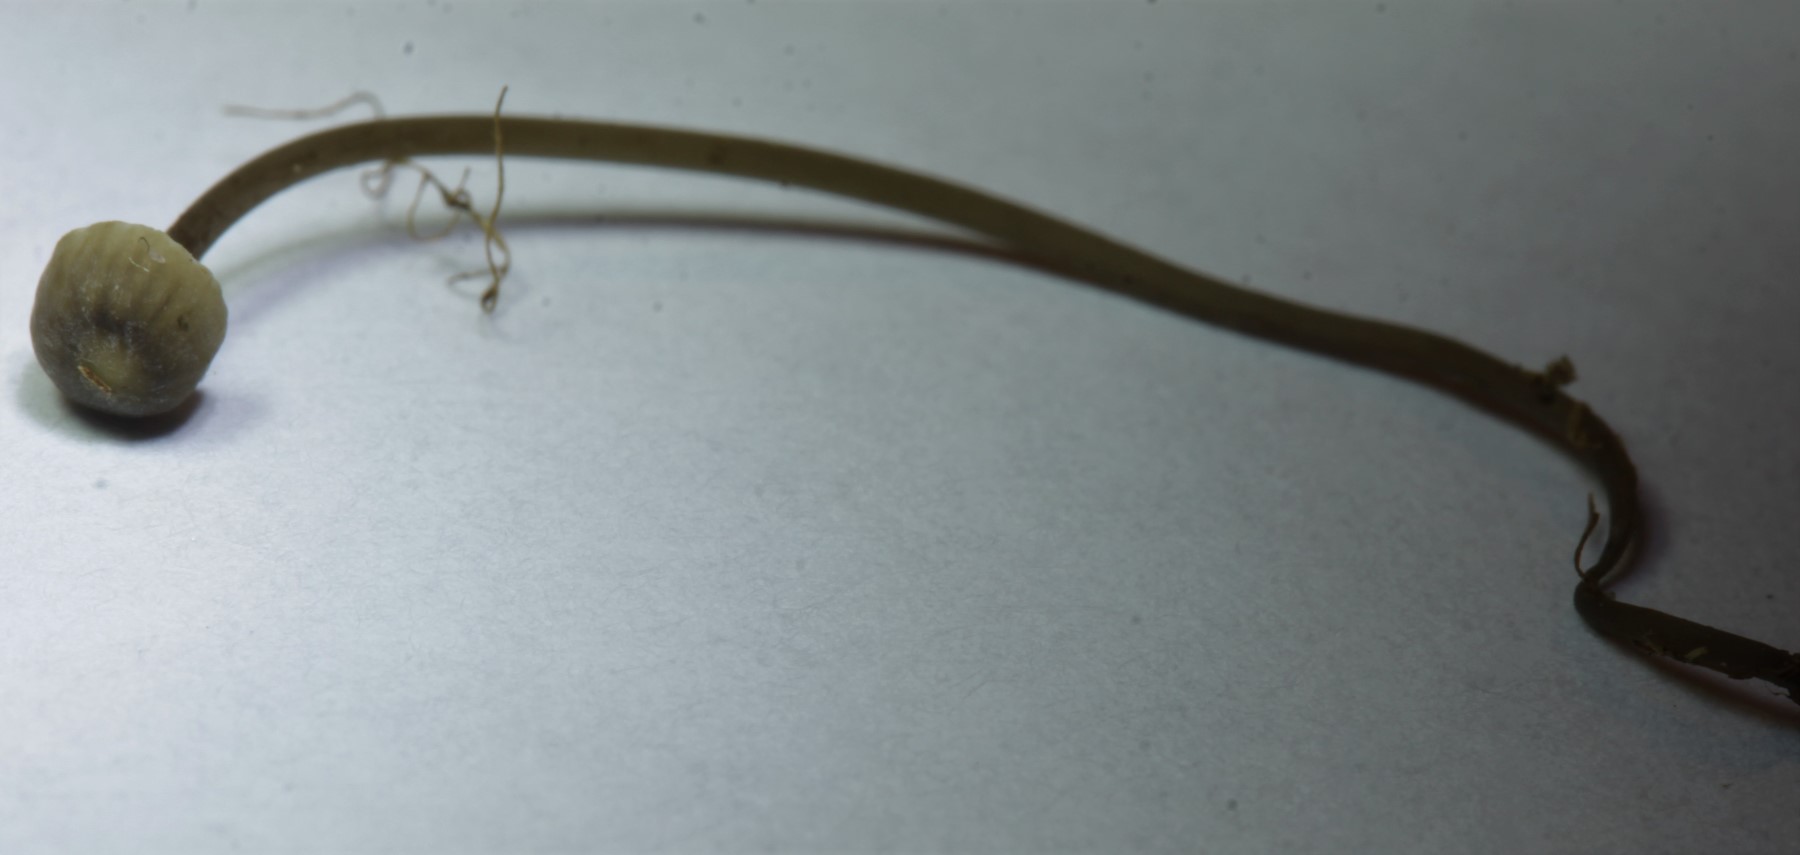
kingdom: Fungi
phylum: Basidiomycota
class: Agaricomycetes
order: Agaricales
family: Mycenaceae
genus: Mycena
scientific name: Mycena
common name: huesvamp
